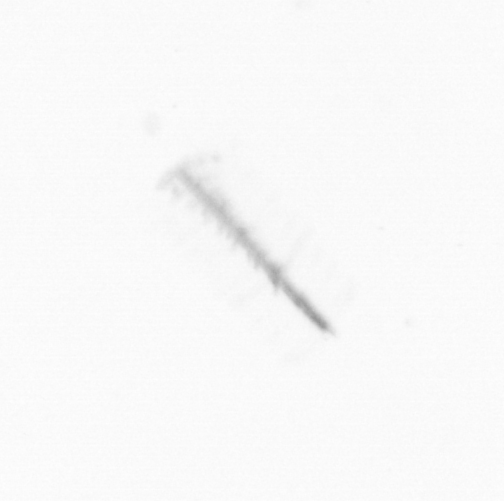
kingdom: Chromista
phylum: Ochrophyta
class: Bacillariophyceae
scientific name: Bacillariophyceae
